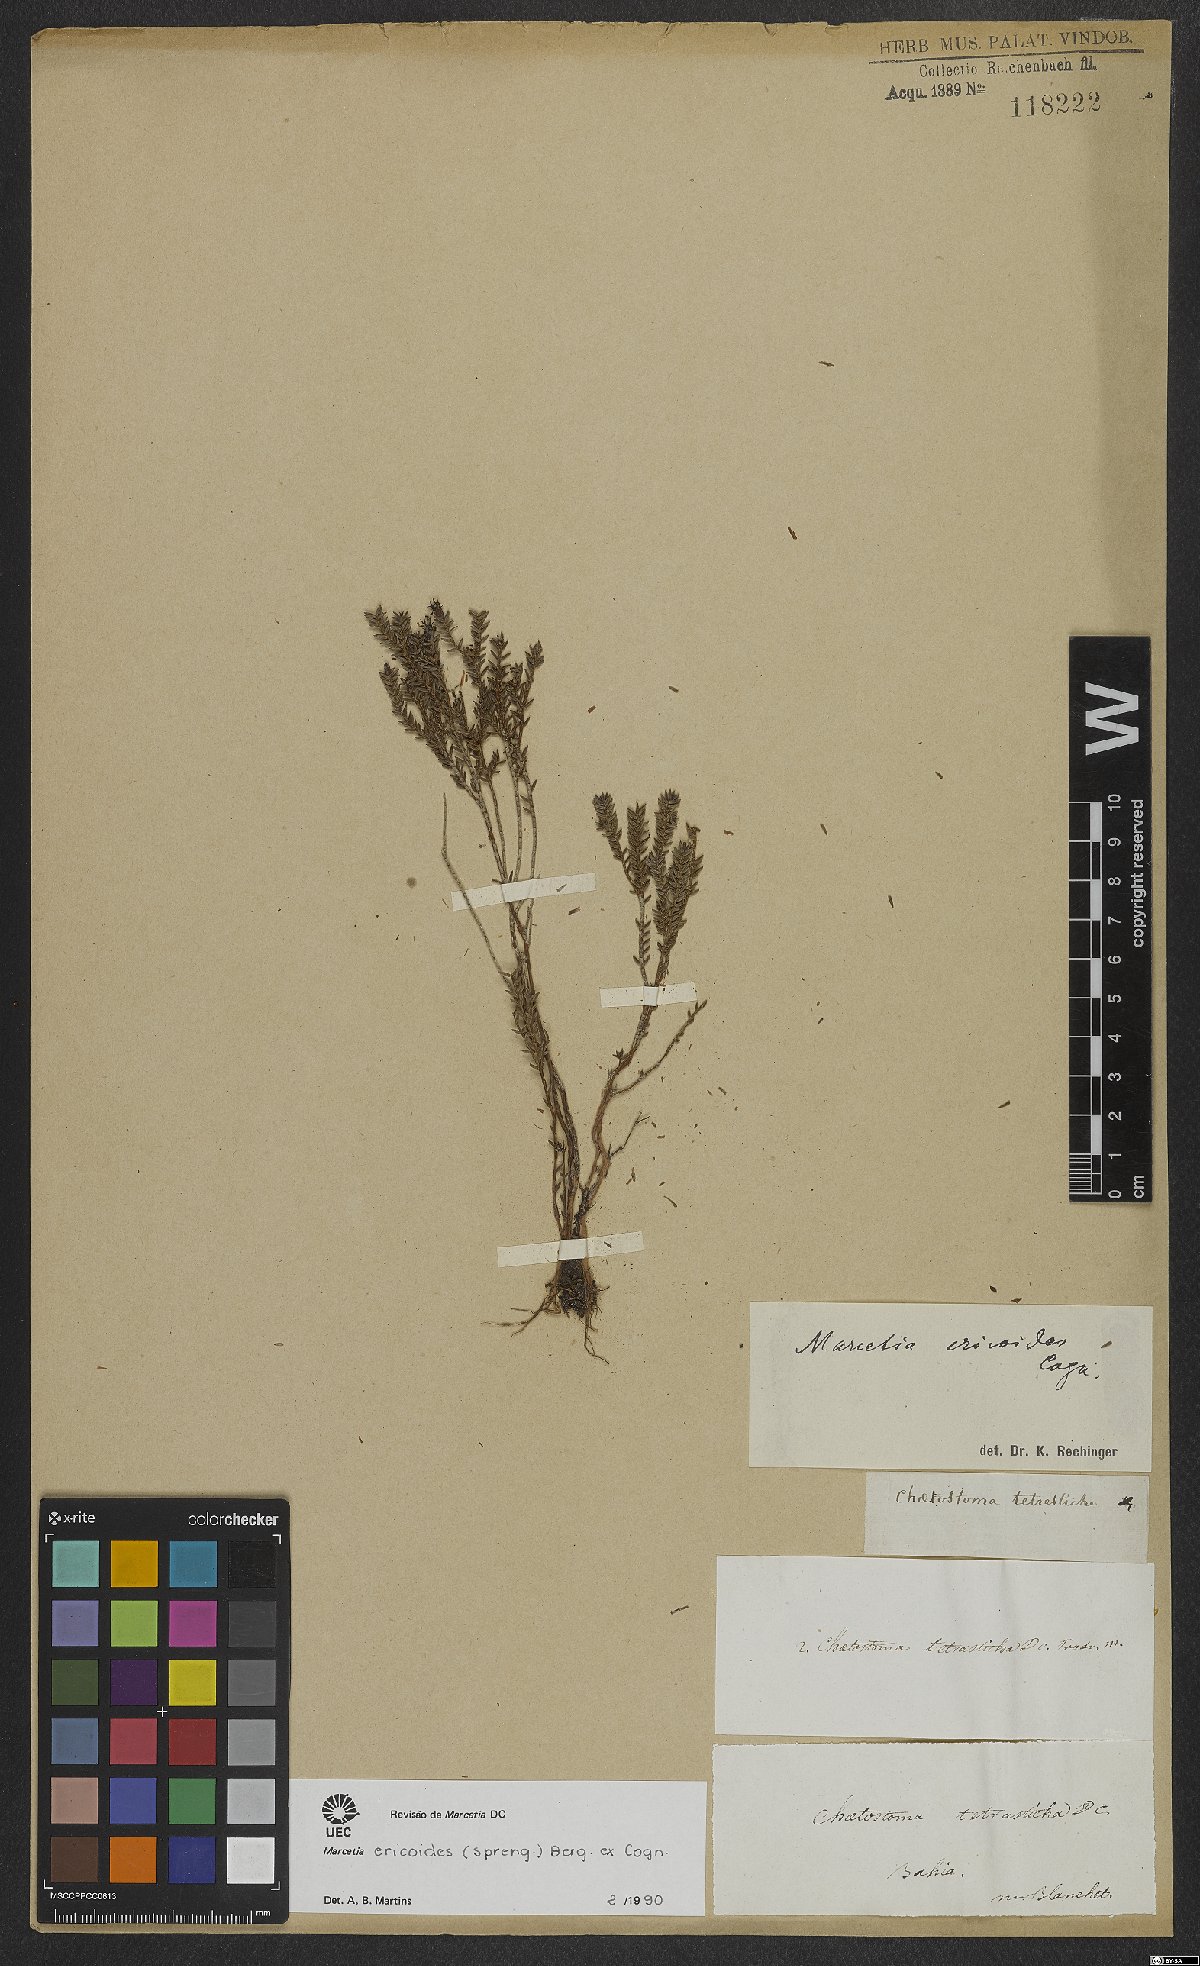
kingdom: Plantae
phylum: Tracheophyta
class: Magnoliopsida
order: Myrtales
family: Melastomataceae
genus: Marcetia
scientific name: Marcetia ericoides
